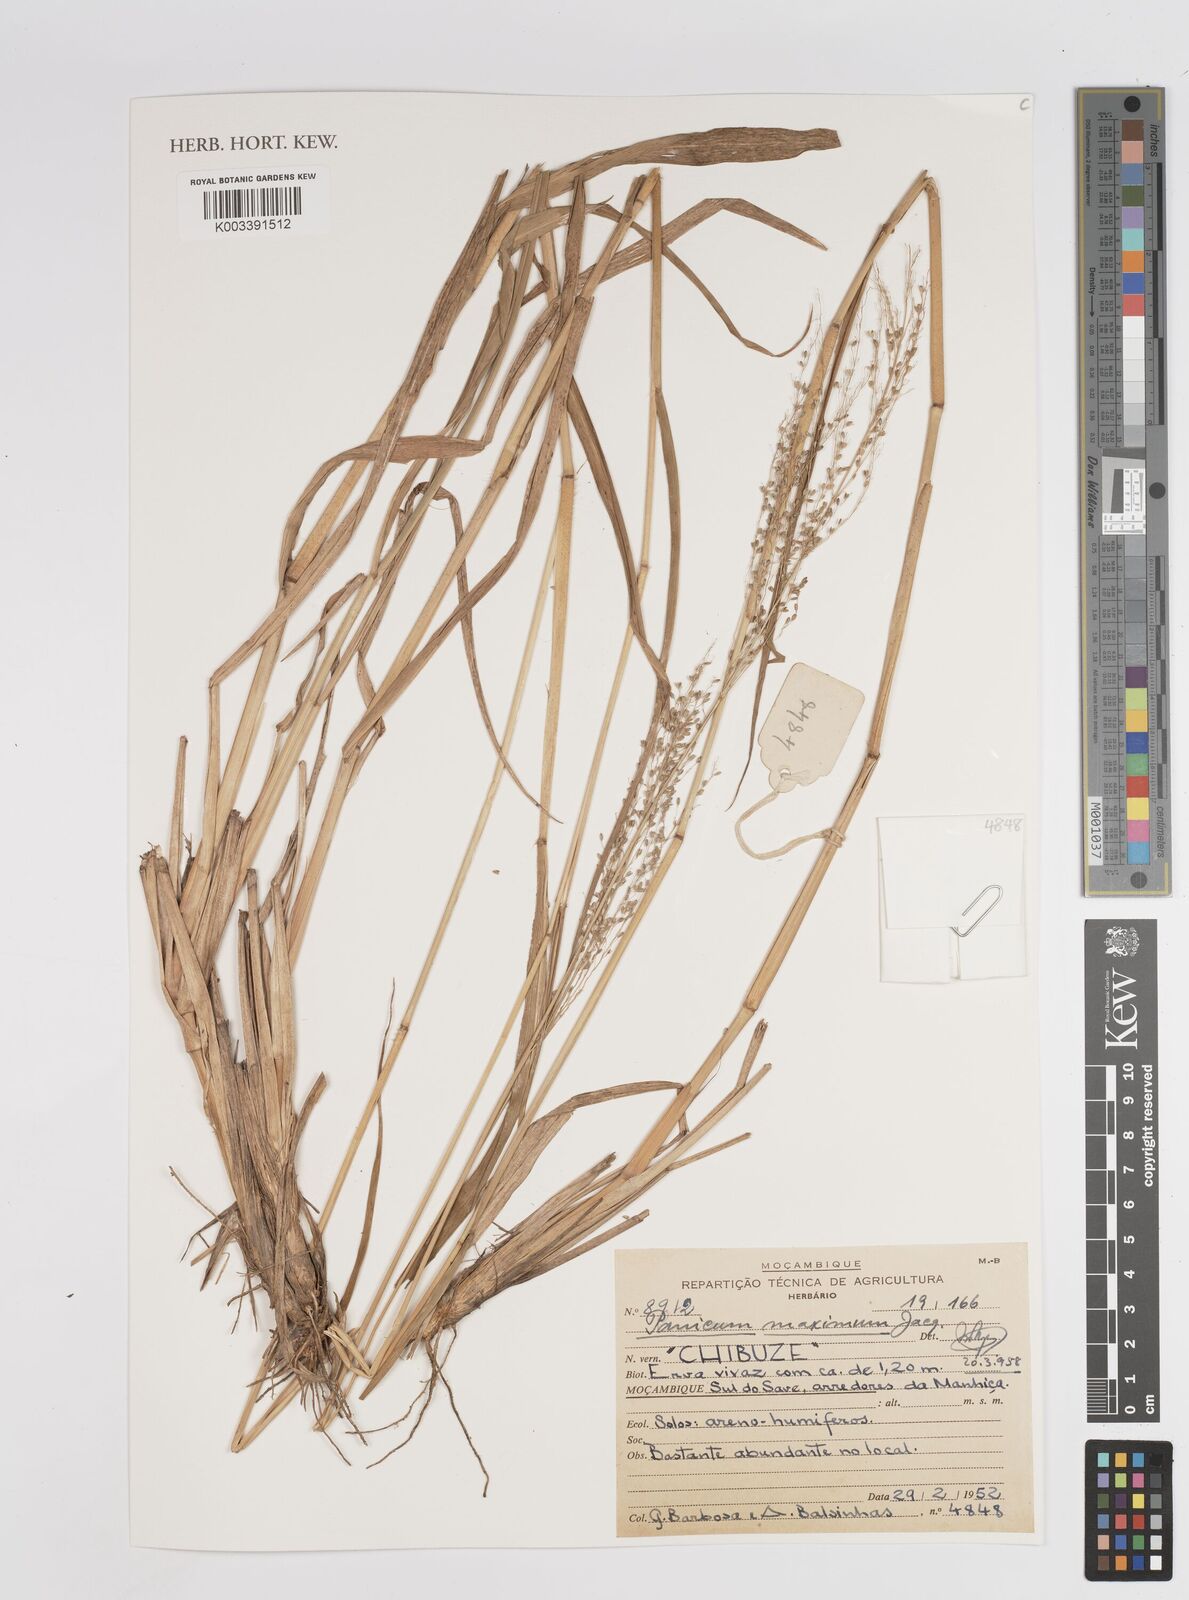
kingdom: Plantae
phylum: Tracheophyta
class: Liliopsida
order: Poales
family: Poaceae
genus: Megathyrsus
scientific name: Megathyrsus maximus
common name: Guineagrass
